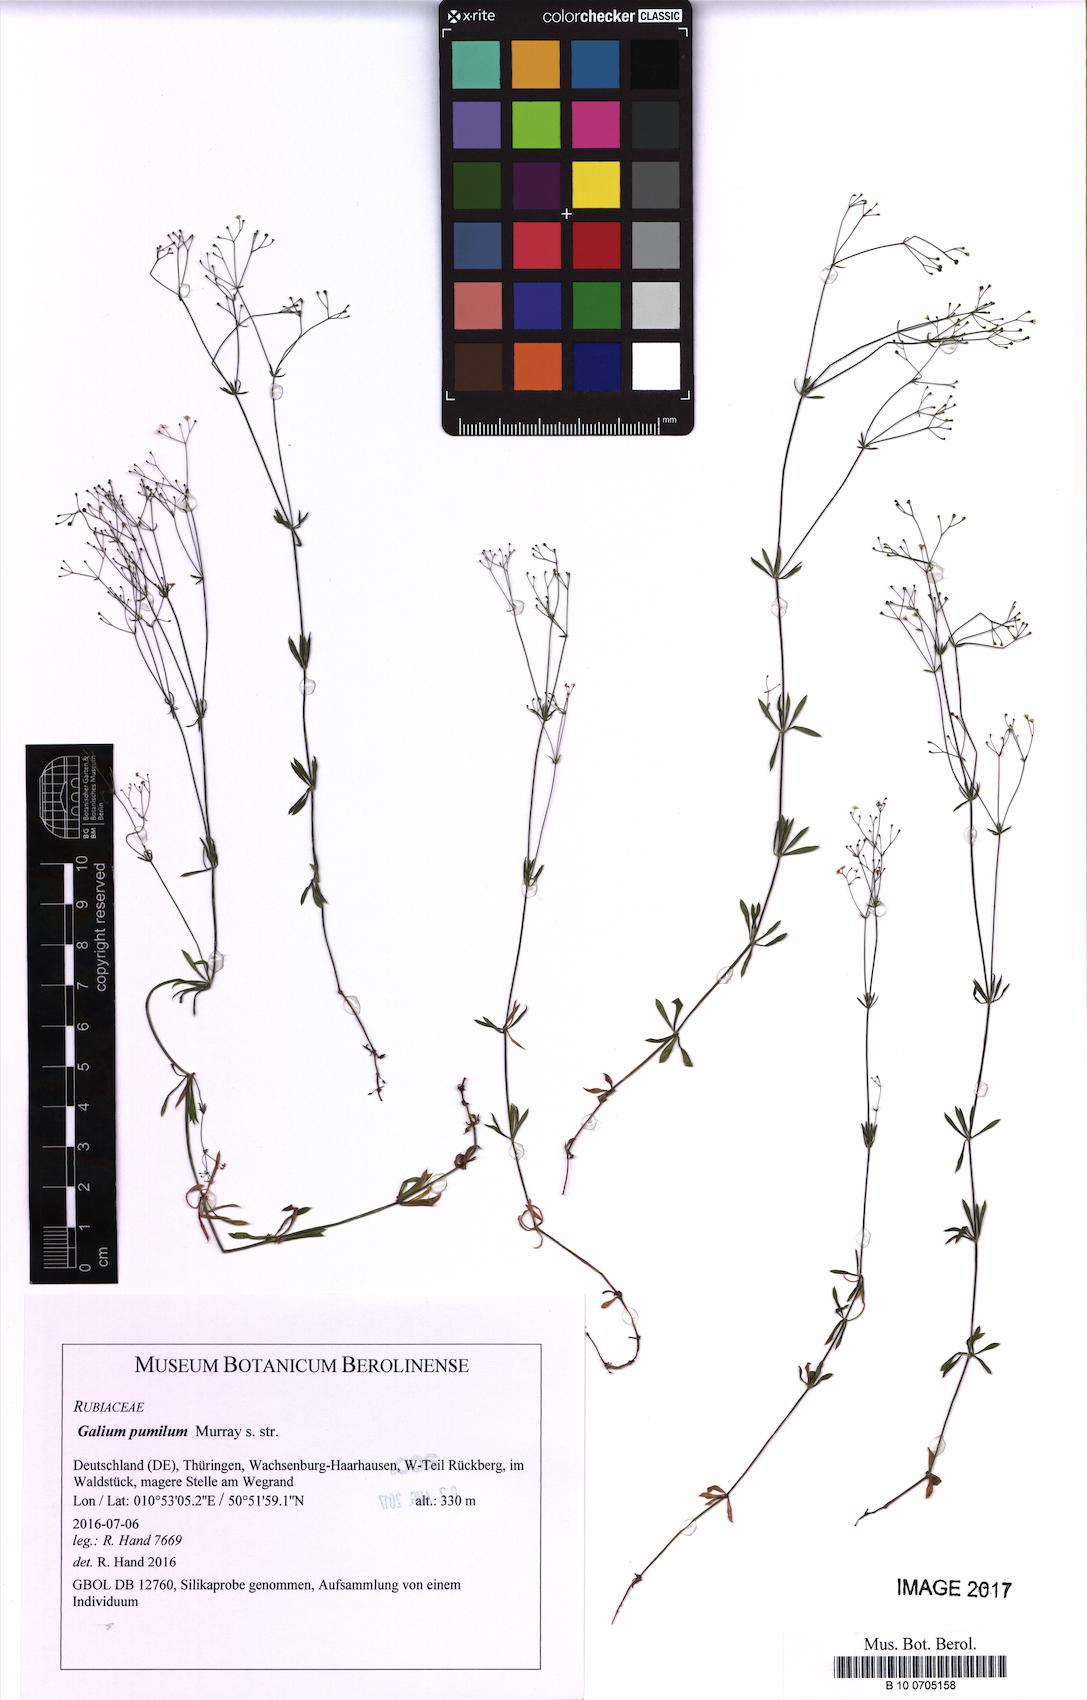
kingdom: Plantae
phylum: Tracheophyta
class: Magnoliopsida
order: Gentianales
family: Rubiaceae
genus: Galium
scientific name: Galium pumilum
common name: Slender bedstraw
